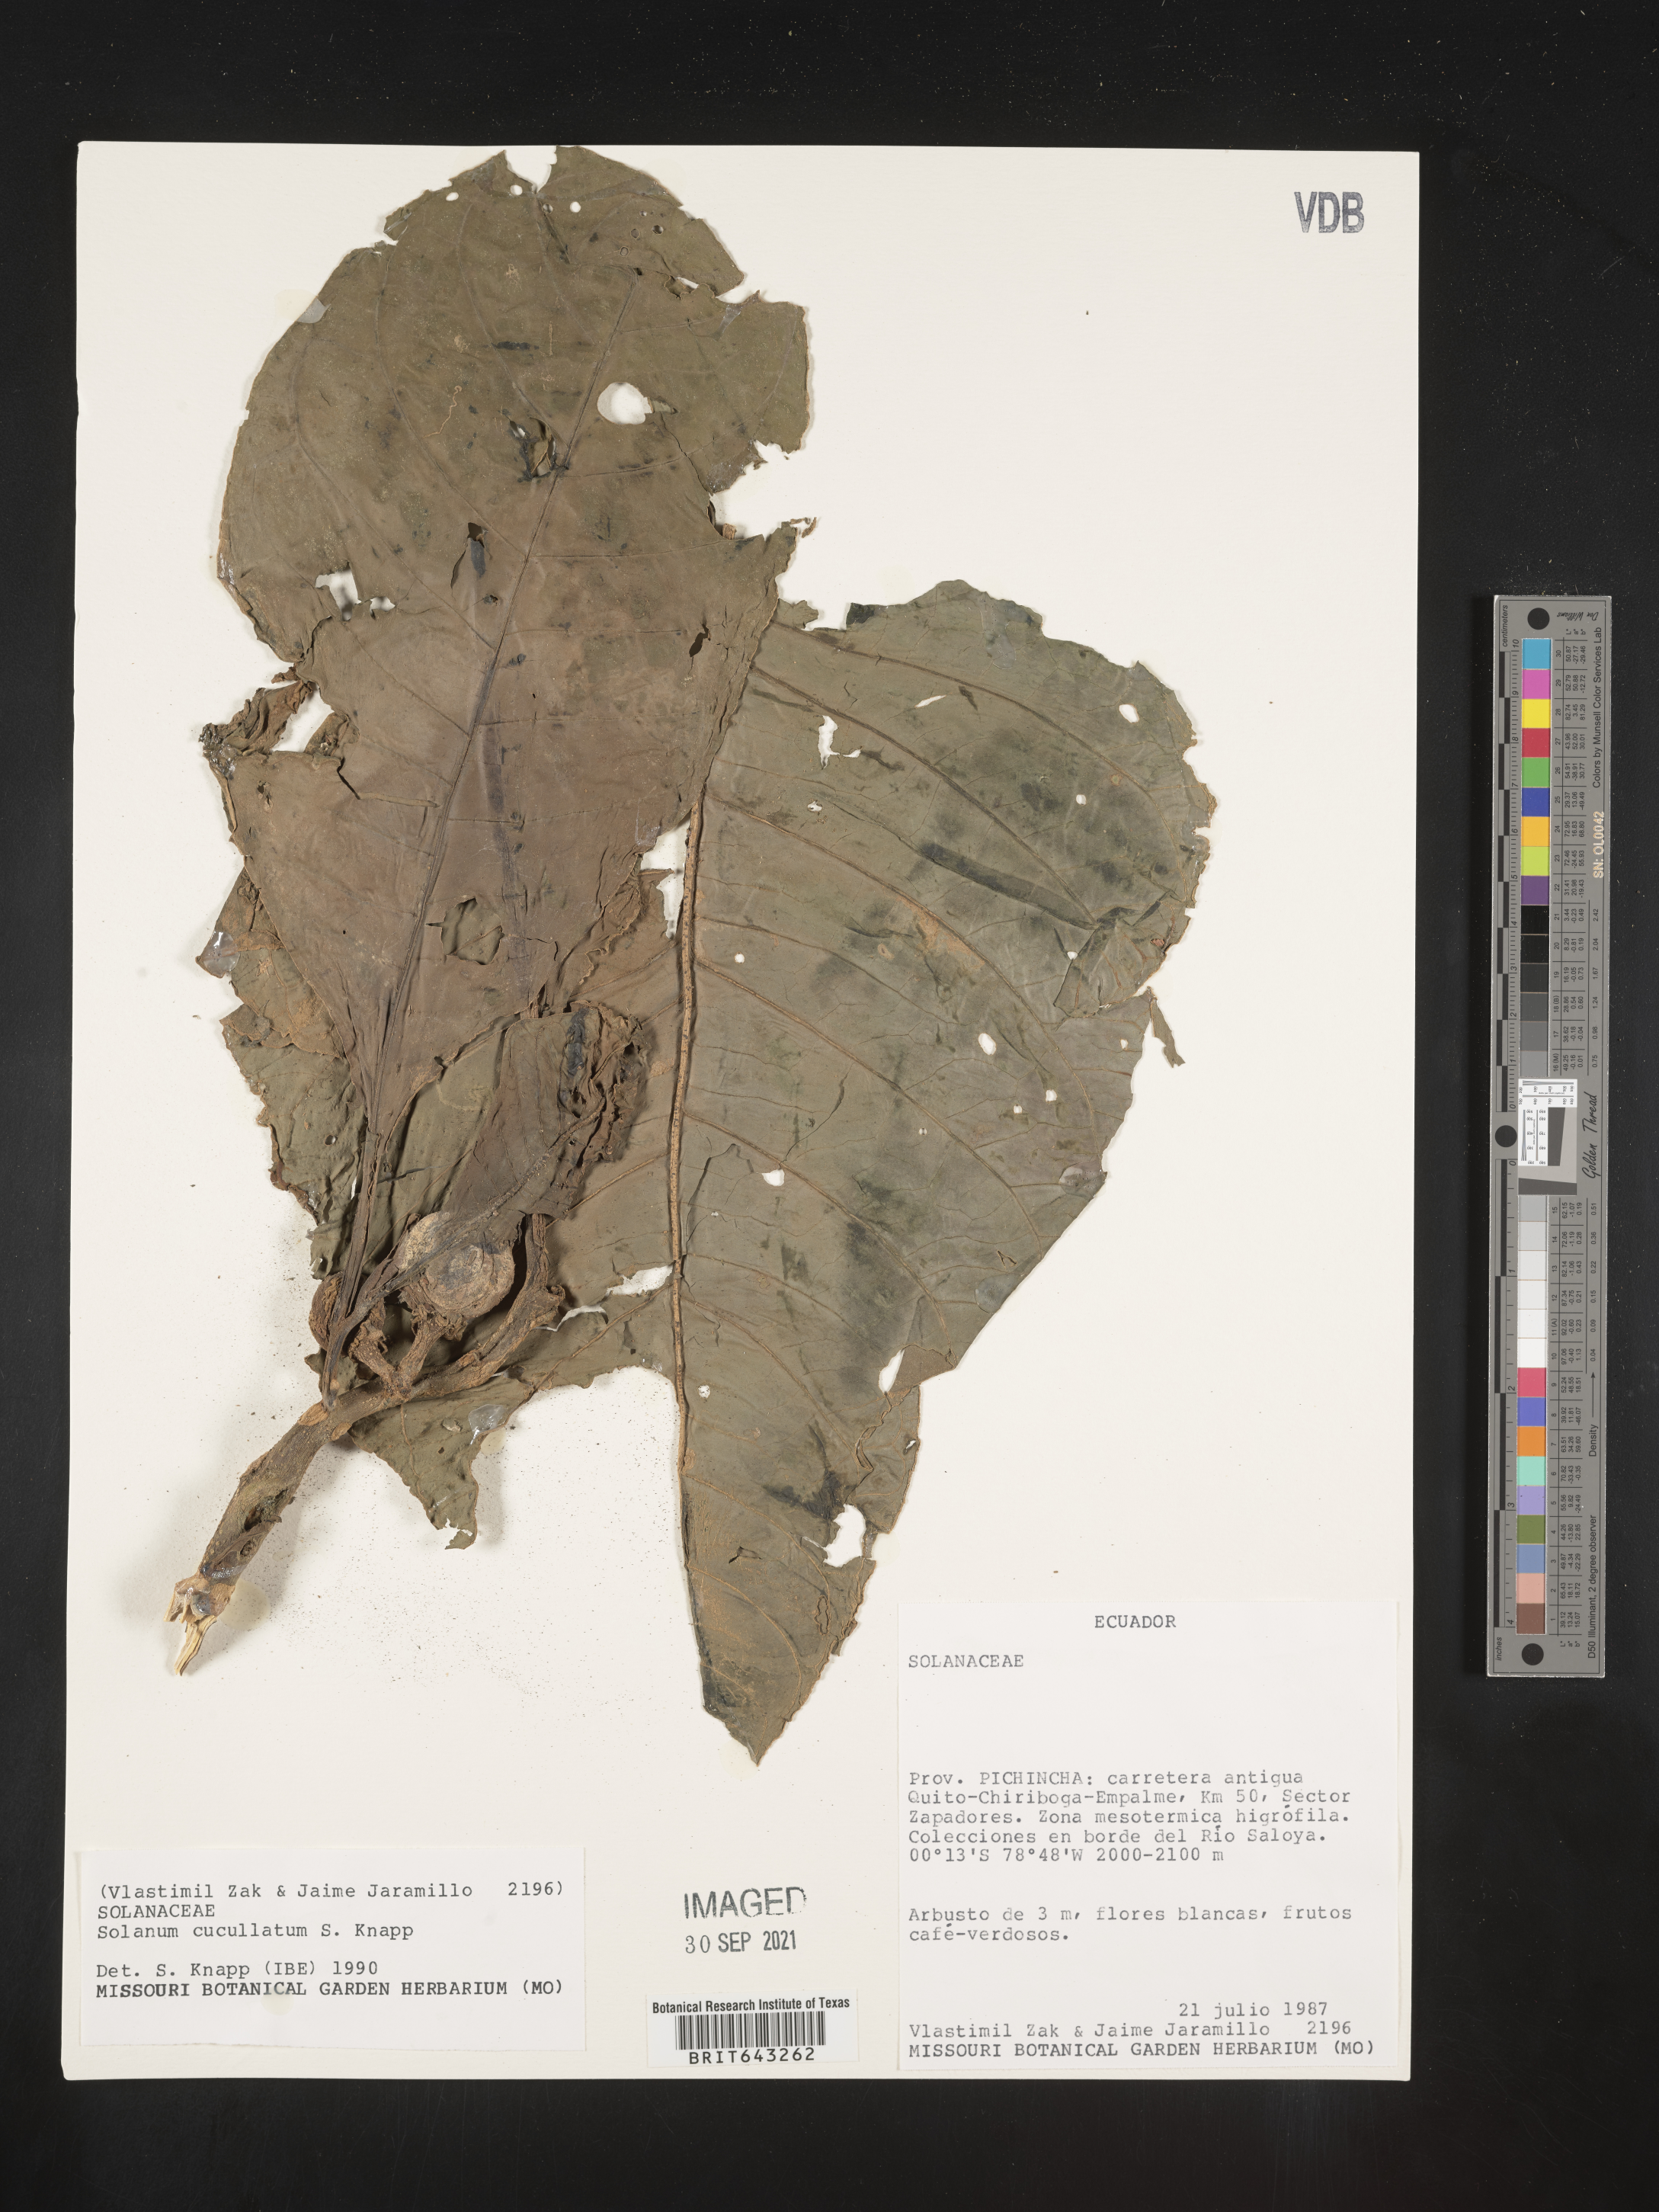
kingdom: Plantae
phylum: Tracheophyta
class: Magnoliopsida
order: Solanales
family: Solanaceae
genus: Solanum
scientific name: Solanum
